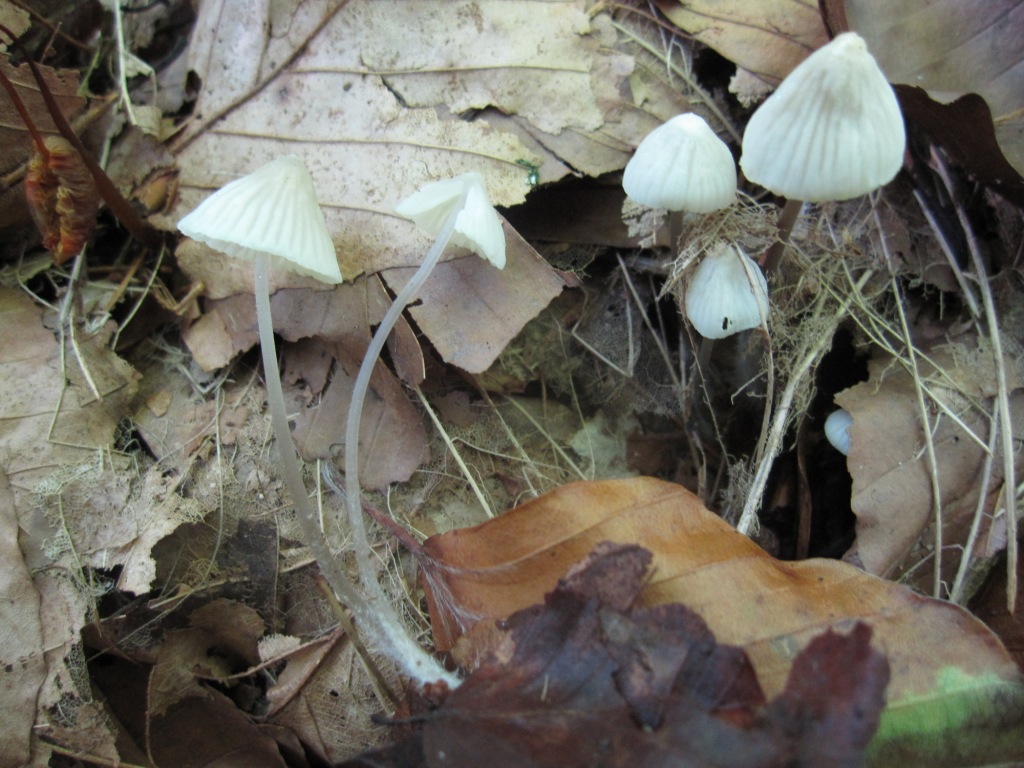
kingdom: Fungi
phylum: Basidiomycota
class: Agaricomycetes
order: Agaricales
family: Mycenaceae
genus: Mycena
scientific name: Mycena flavescens
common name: grågul huesvamp
